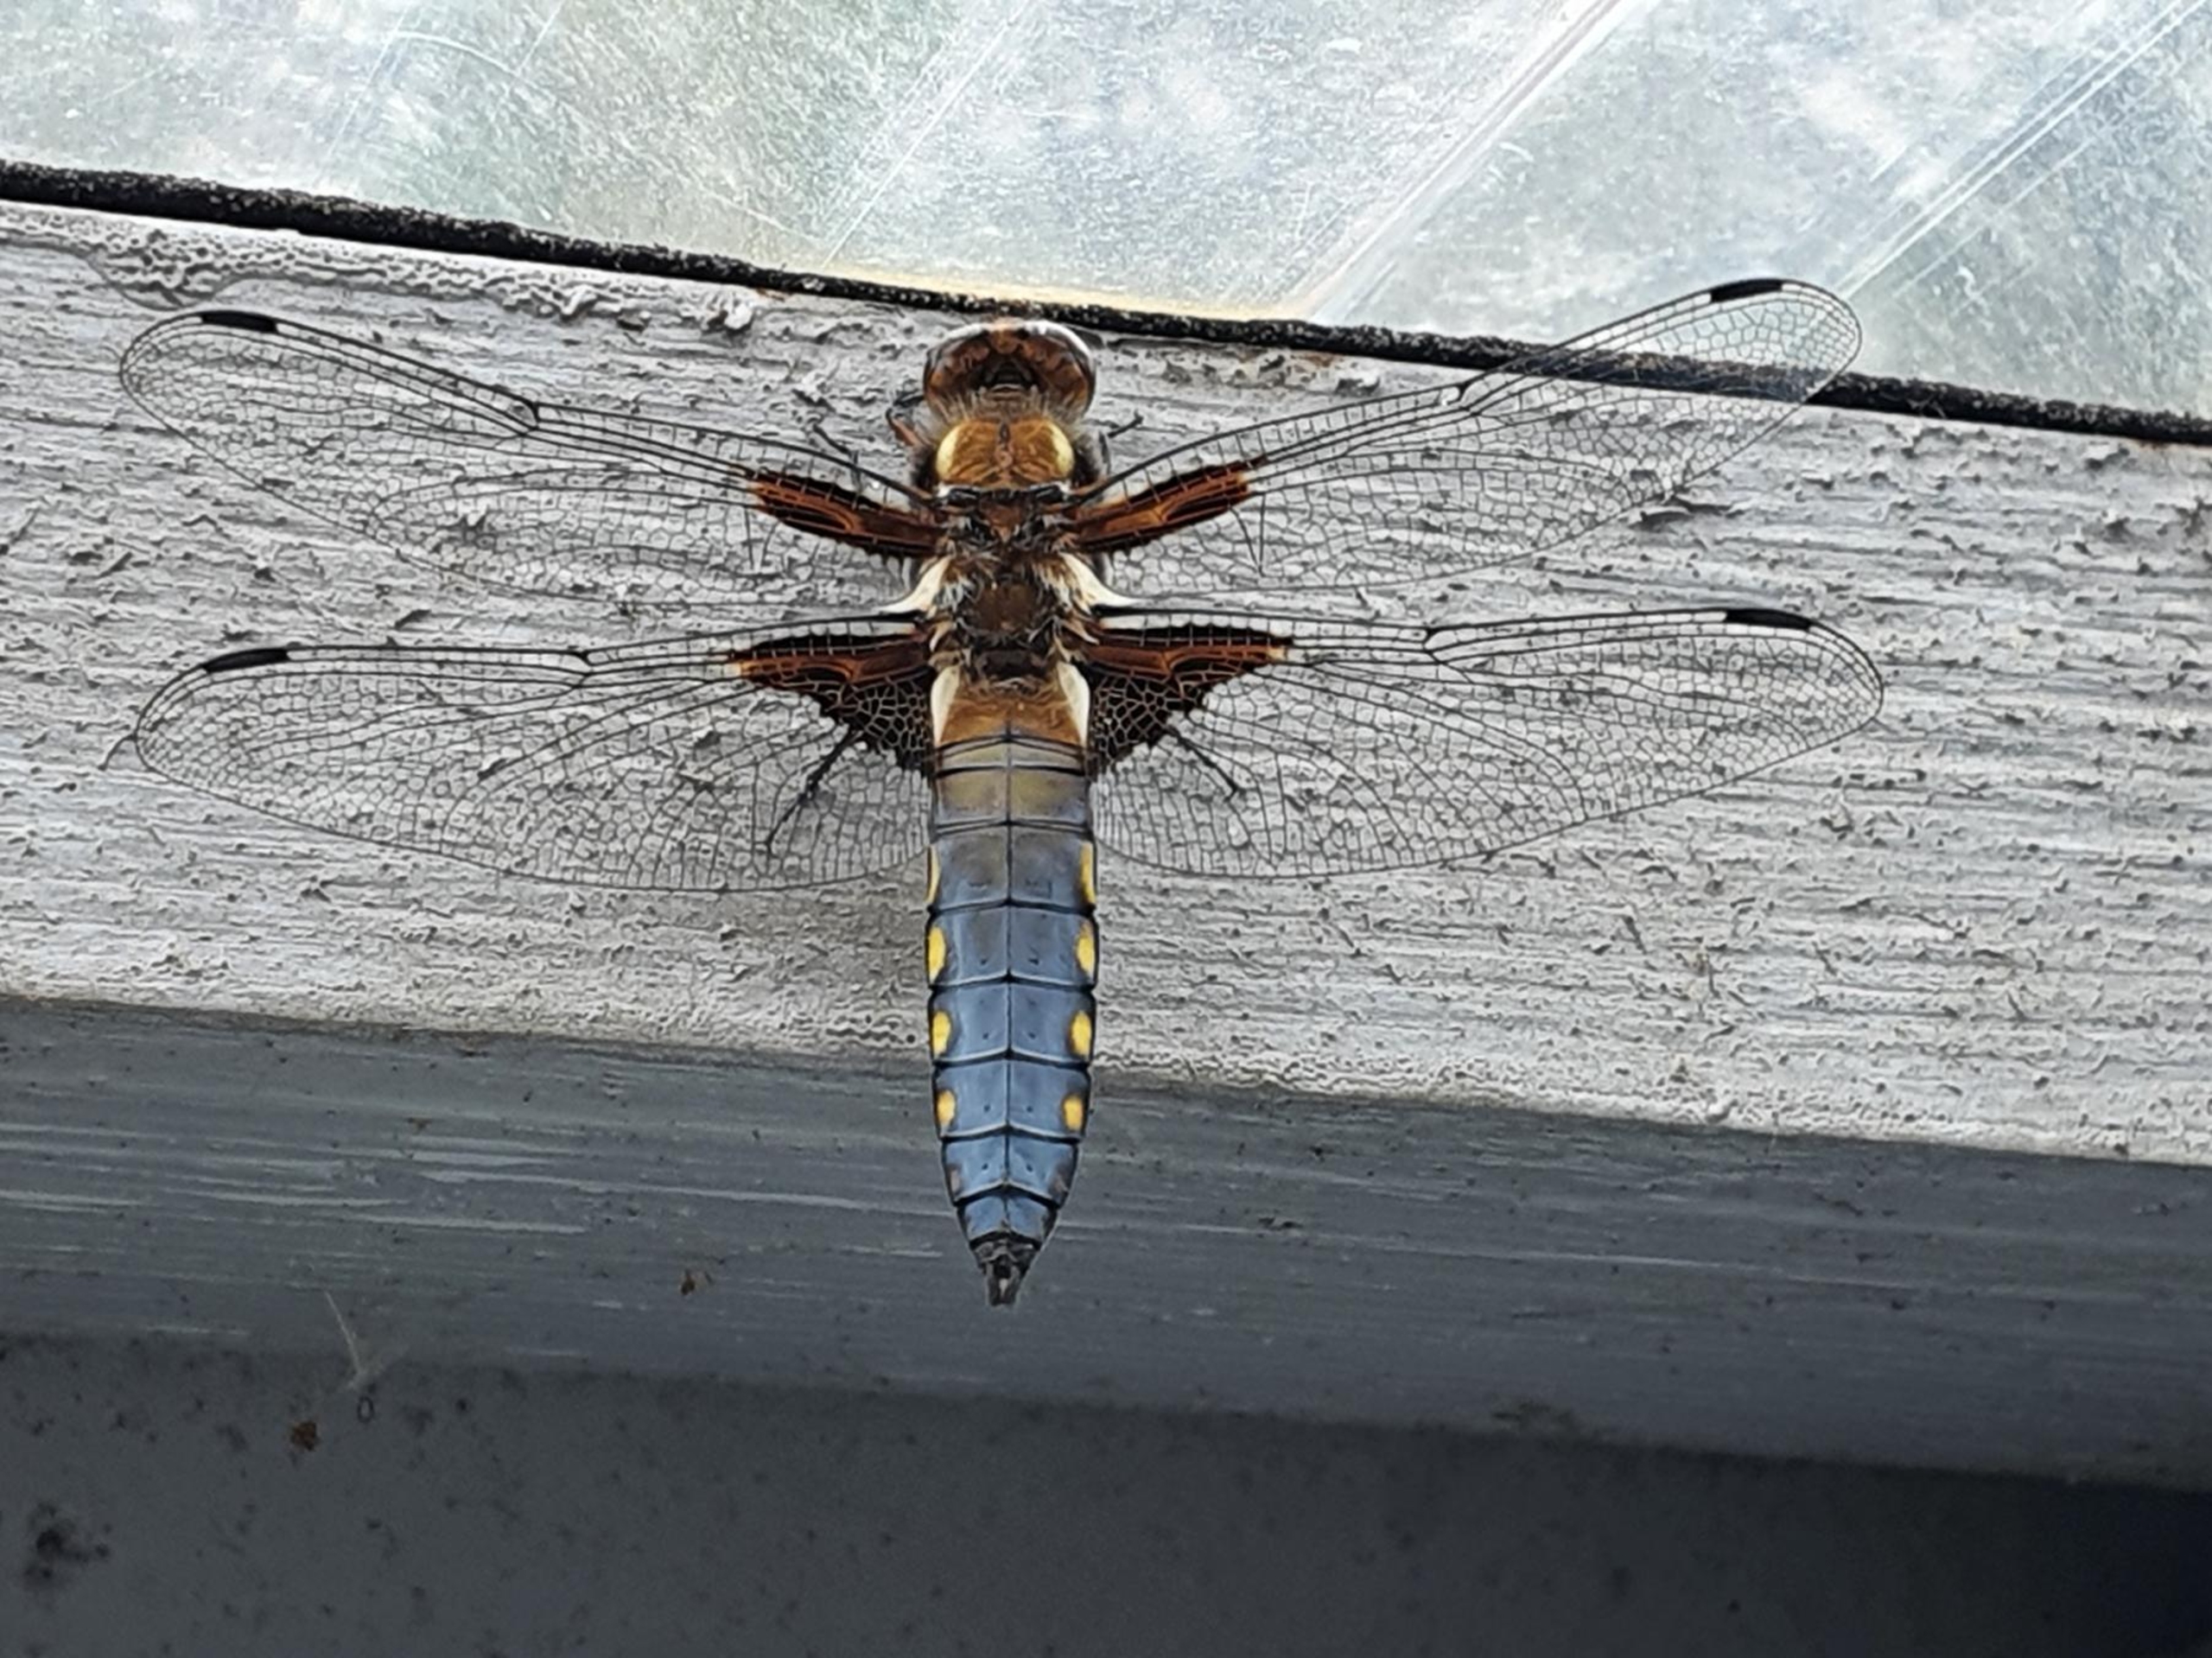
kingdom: Animalia
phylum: Arthropoda
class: Insecta
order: Odonata
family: Libellulidae
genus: Libellula
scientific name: Libellula depressa
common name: Blå libel
